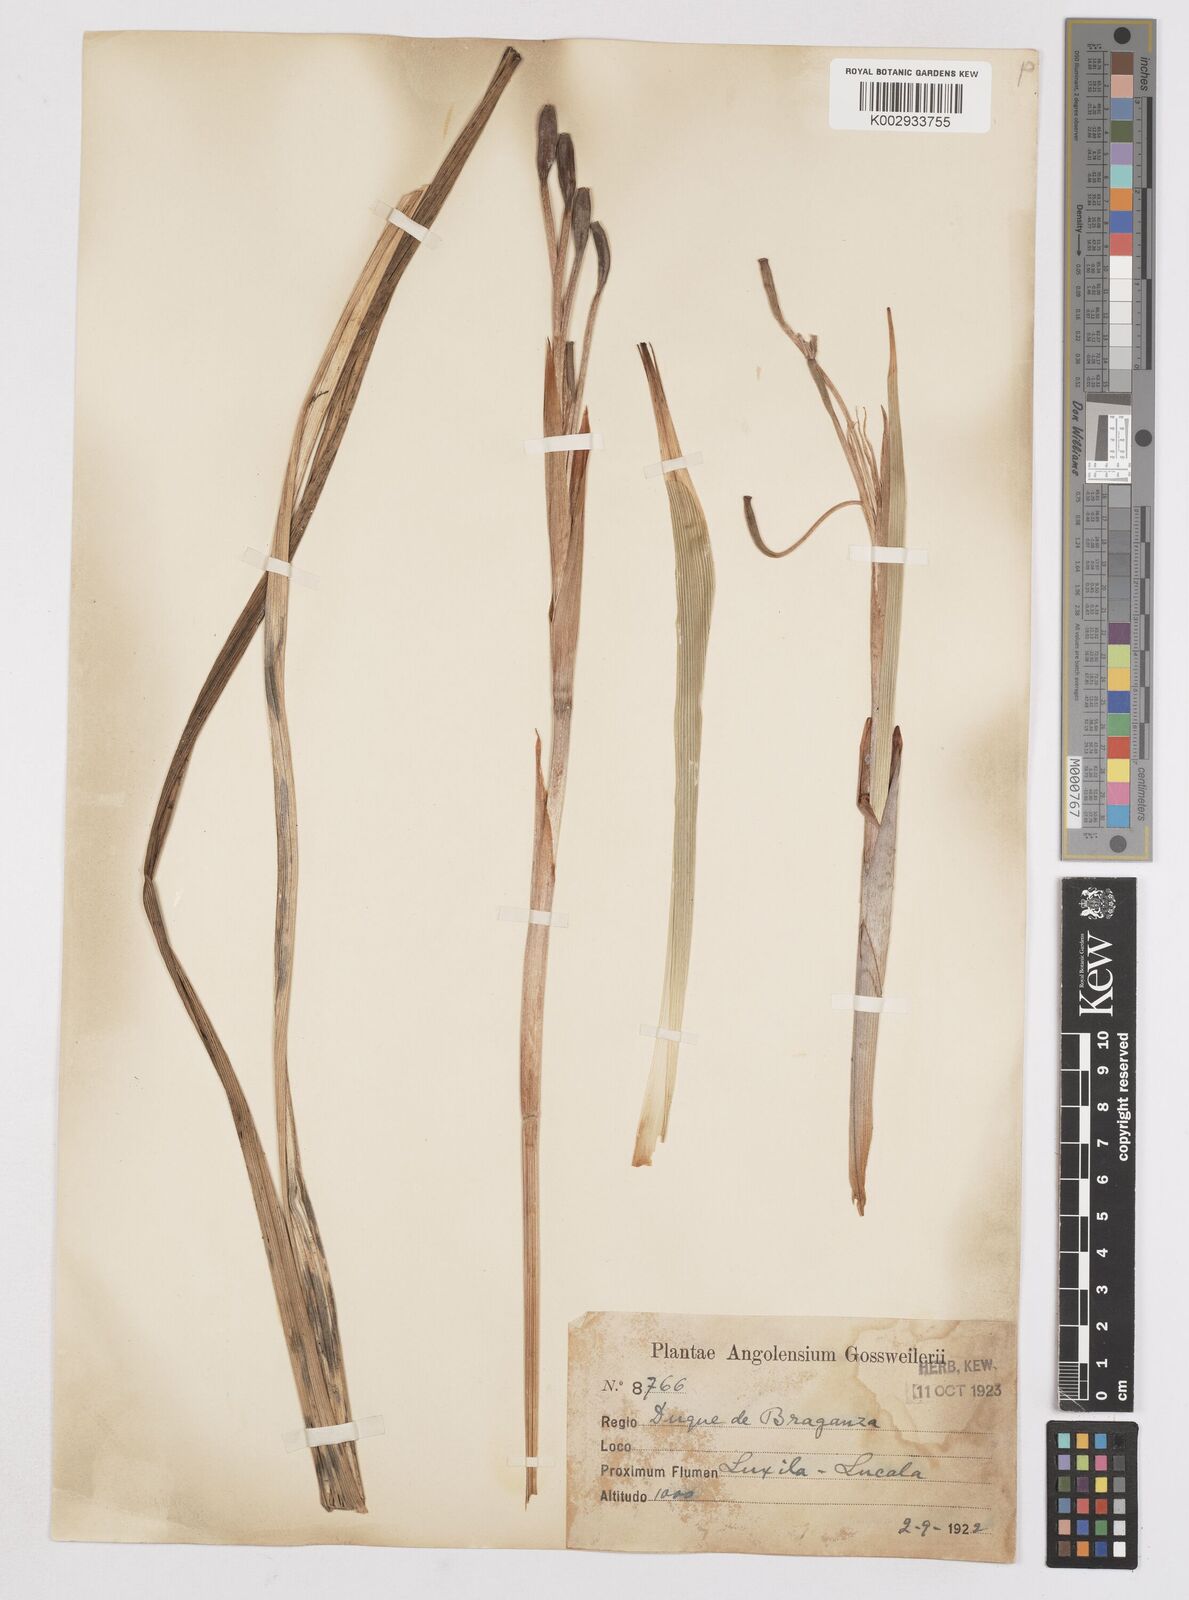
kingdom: Plantae
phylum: Tracheophyta
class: Liliopsida
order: Asparagales
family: Iridaceae
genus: Moraea
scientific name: Moraea schimperi
